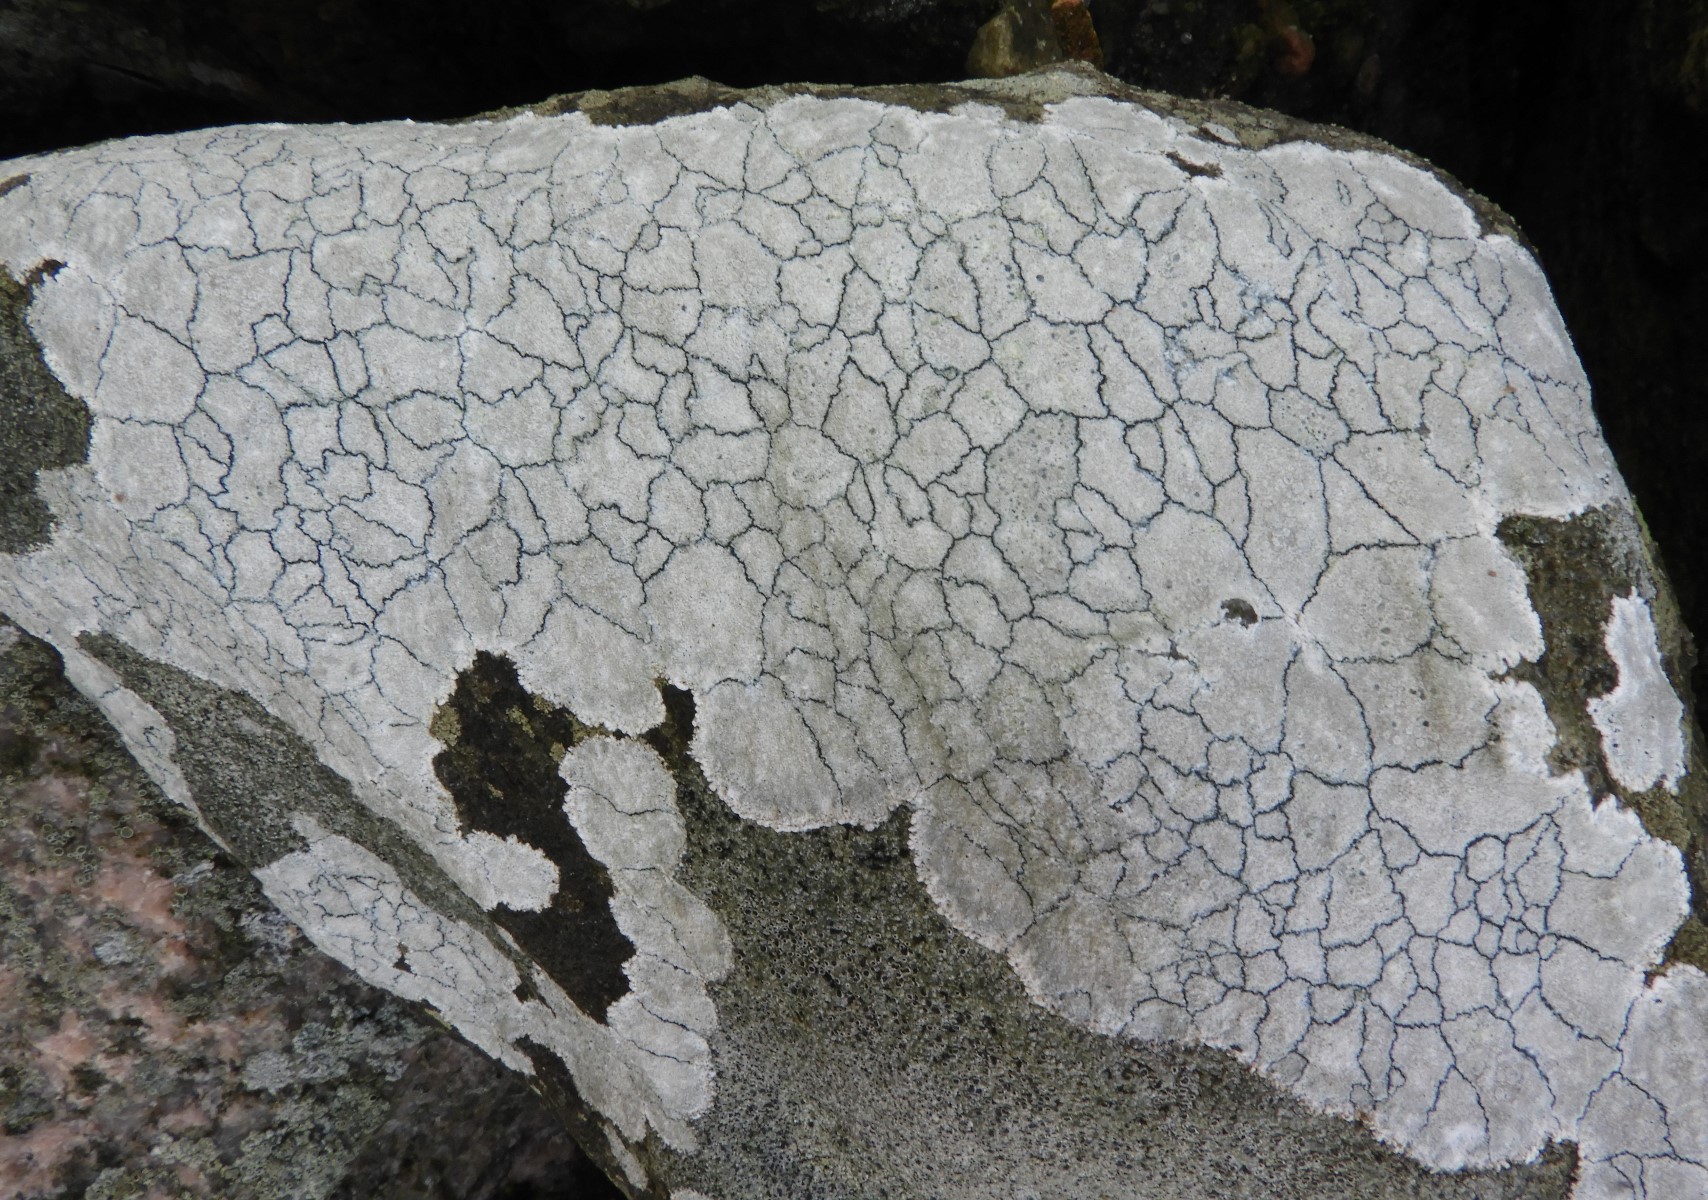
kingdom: Fungi
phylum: Ascomycota
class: Lecanoromycetes
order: Lecanorales
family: Lecanoraceae
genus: Glaucomaria
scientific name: Glaucomaria rupicola
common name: stengærde-kantskivelav
